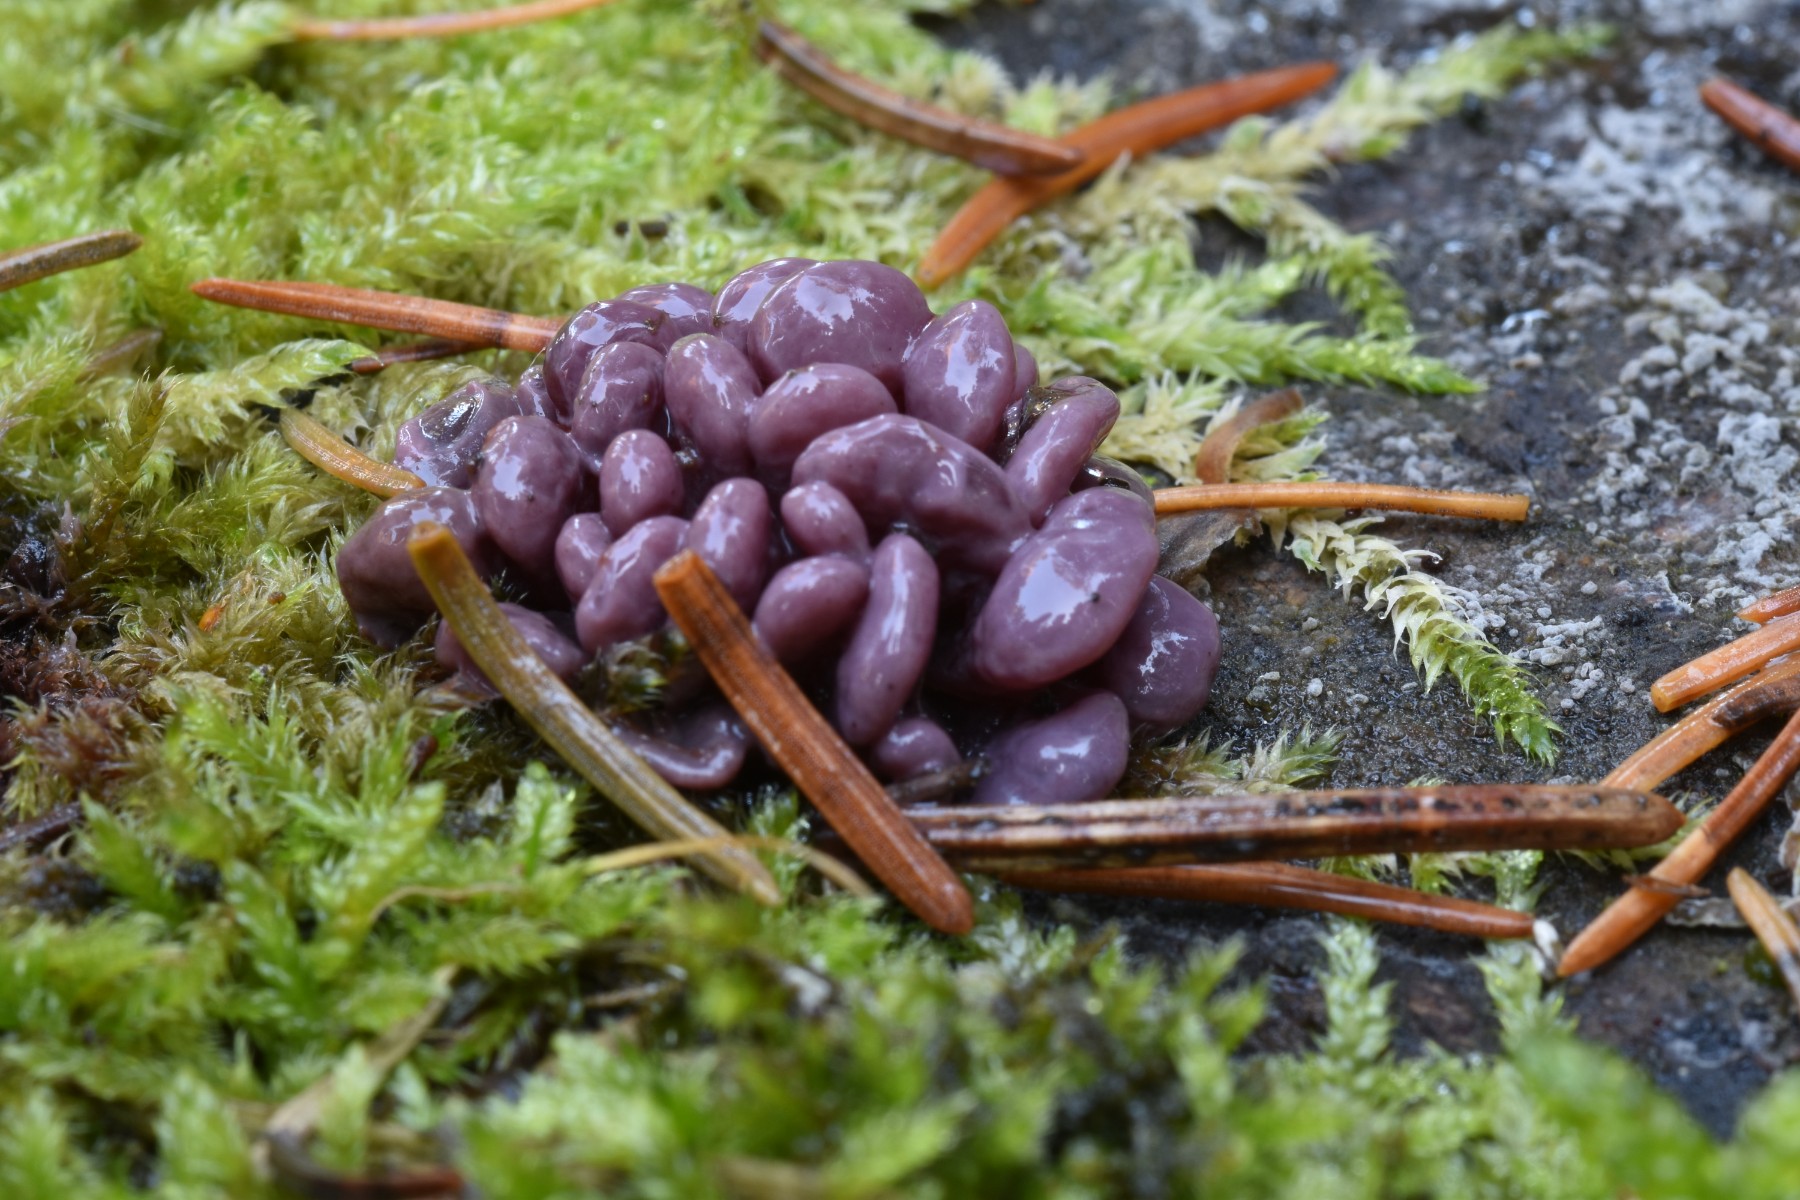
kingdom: Fungi
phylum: Ascomycota
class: Leotiomycetes
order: Helotiales
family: Gelatinodiscaceae
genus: Ascocoryne
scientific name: Ascocoryne sarcoides
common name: rødlilla sejskive
